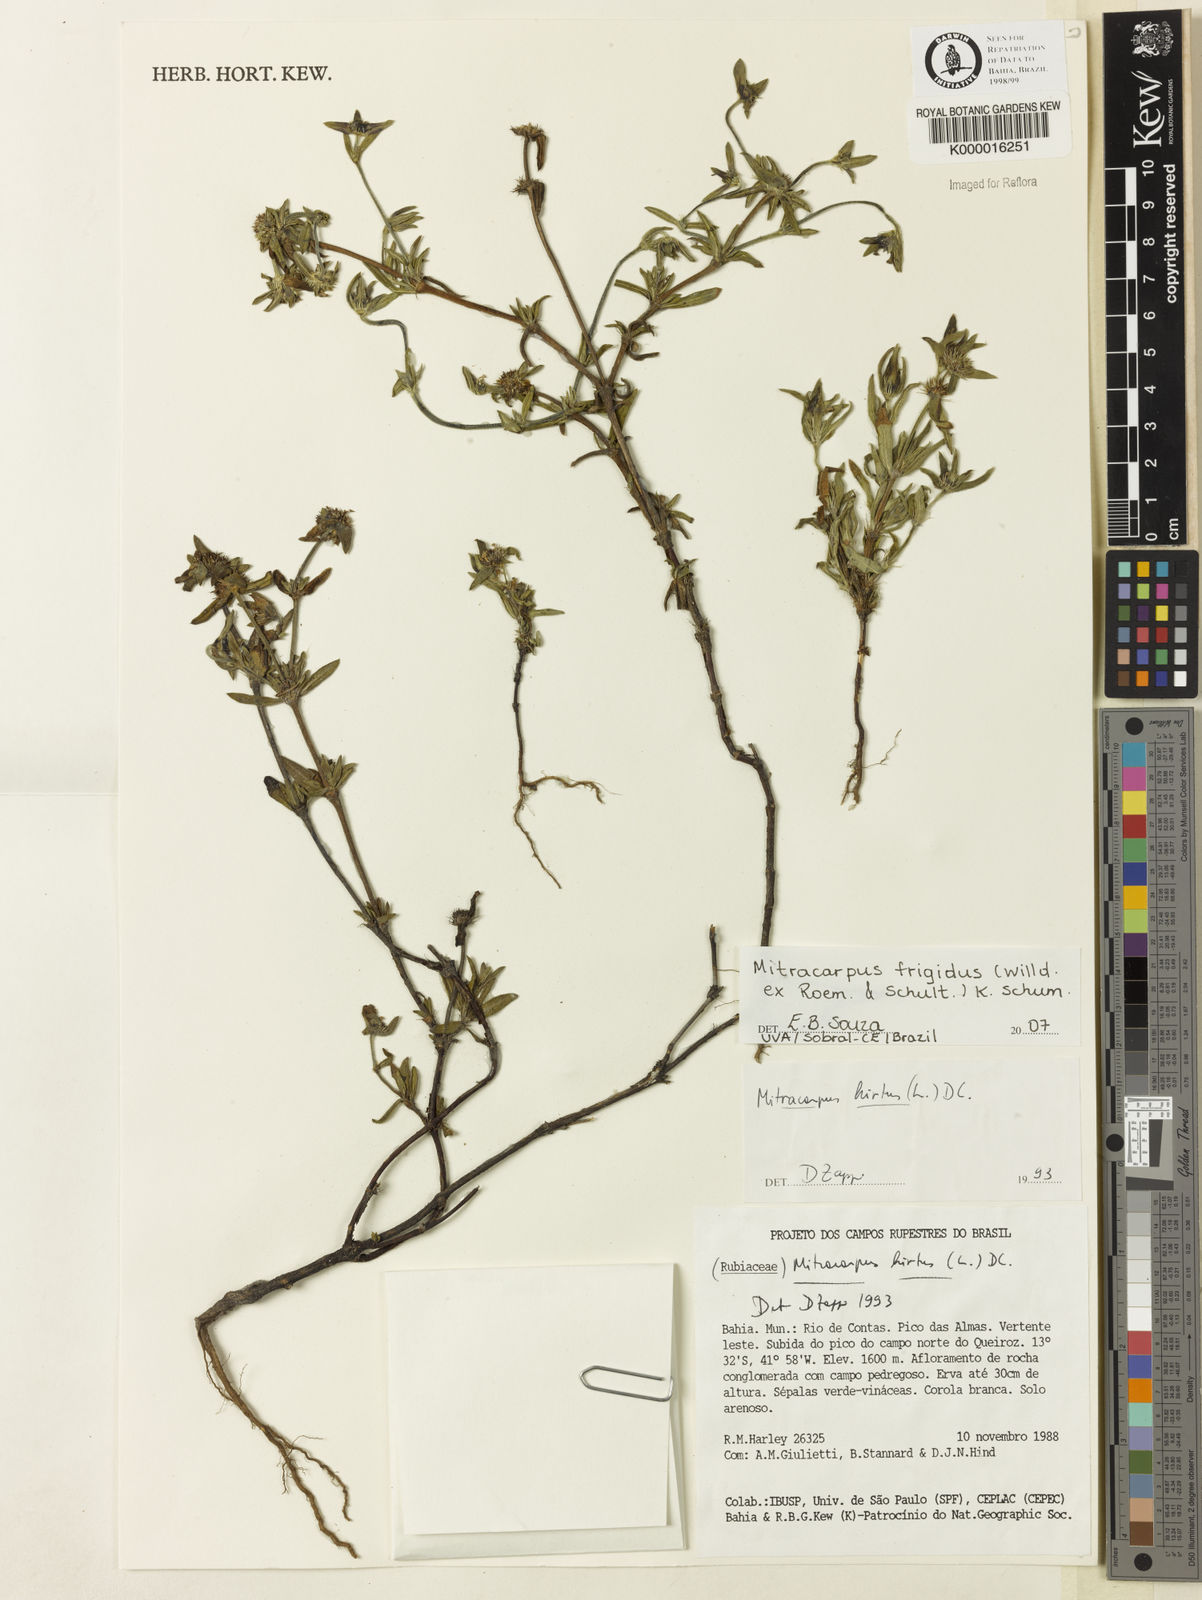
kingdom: Plantae
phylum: Tracheophyta
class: Magnoliopsida
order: Gentianales
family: Rubiaceae
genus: Mitracarpus
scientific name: Mitracarpus frigidus
